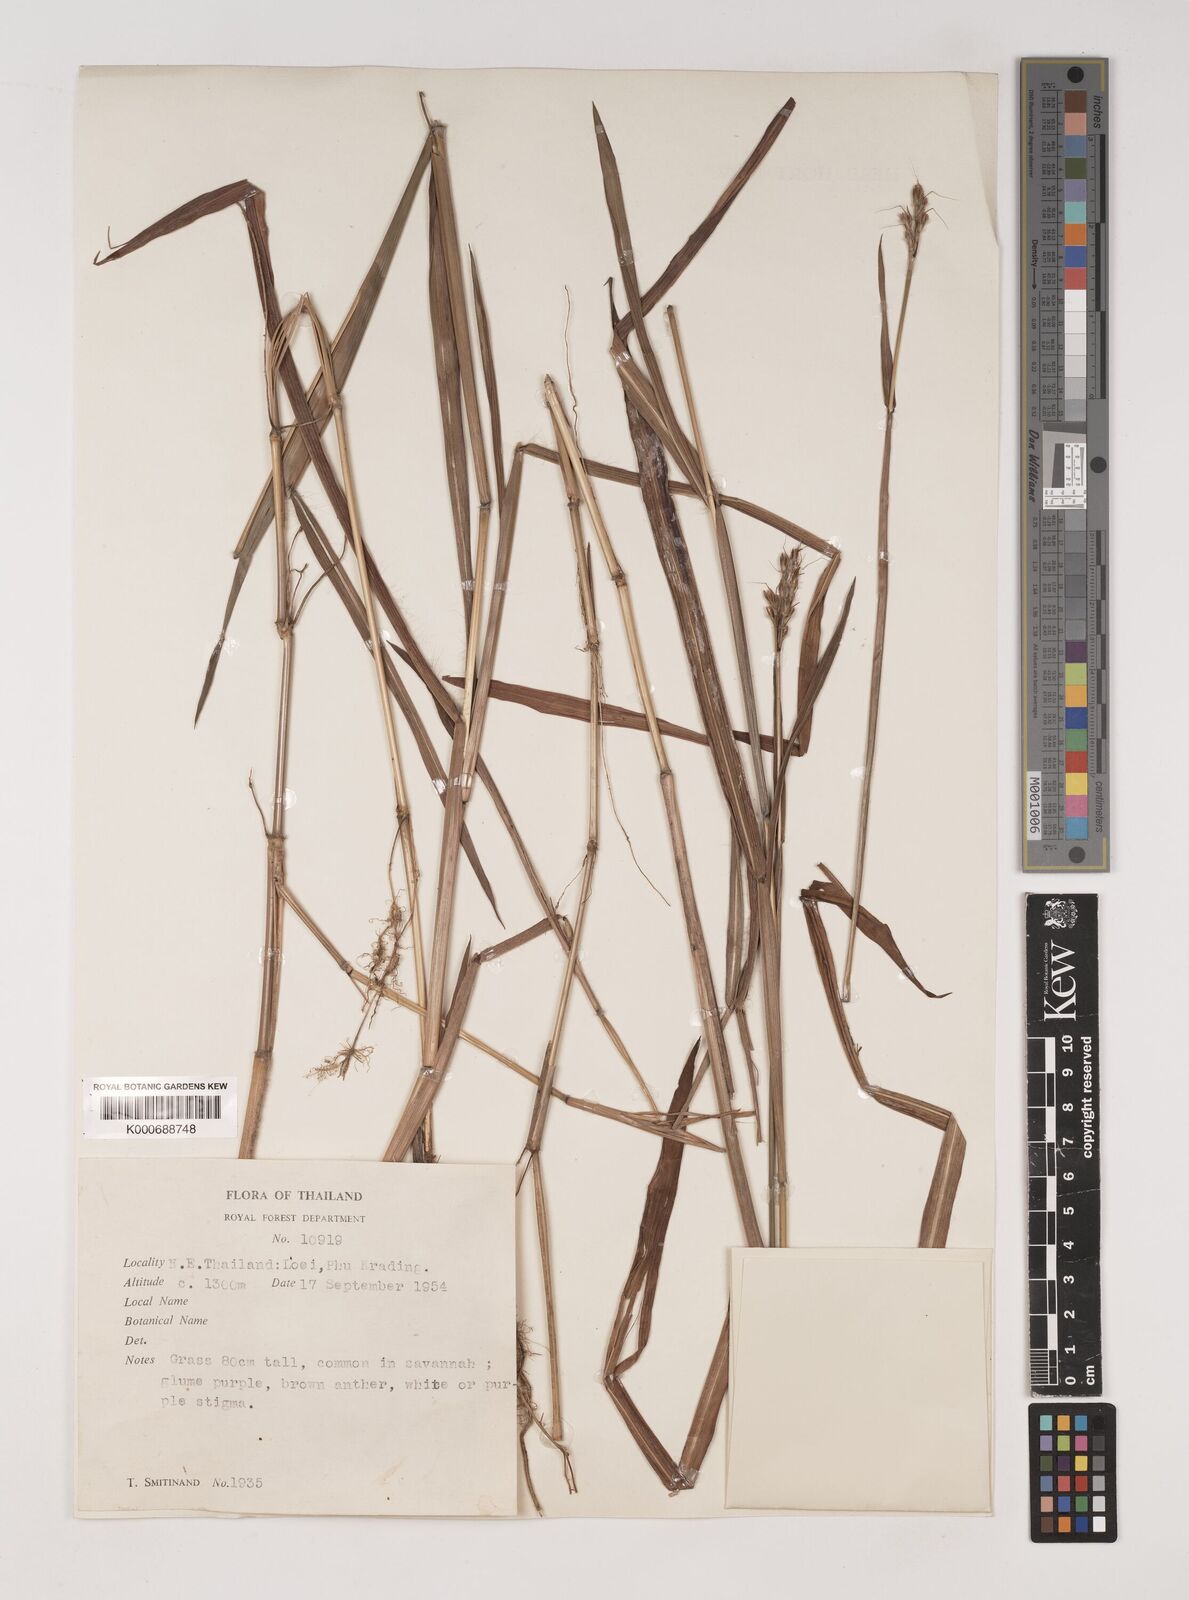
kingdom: Plantae
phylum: Tracheophyta
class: Liliopsida
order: Poales
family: Poaceae
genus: Polytrias
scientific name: Polytrias indica
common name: Indian murainagrass
